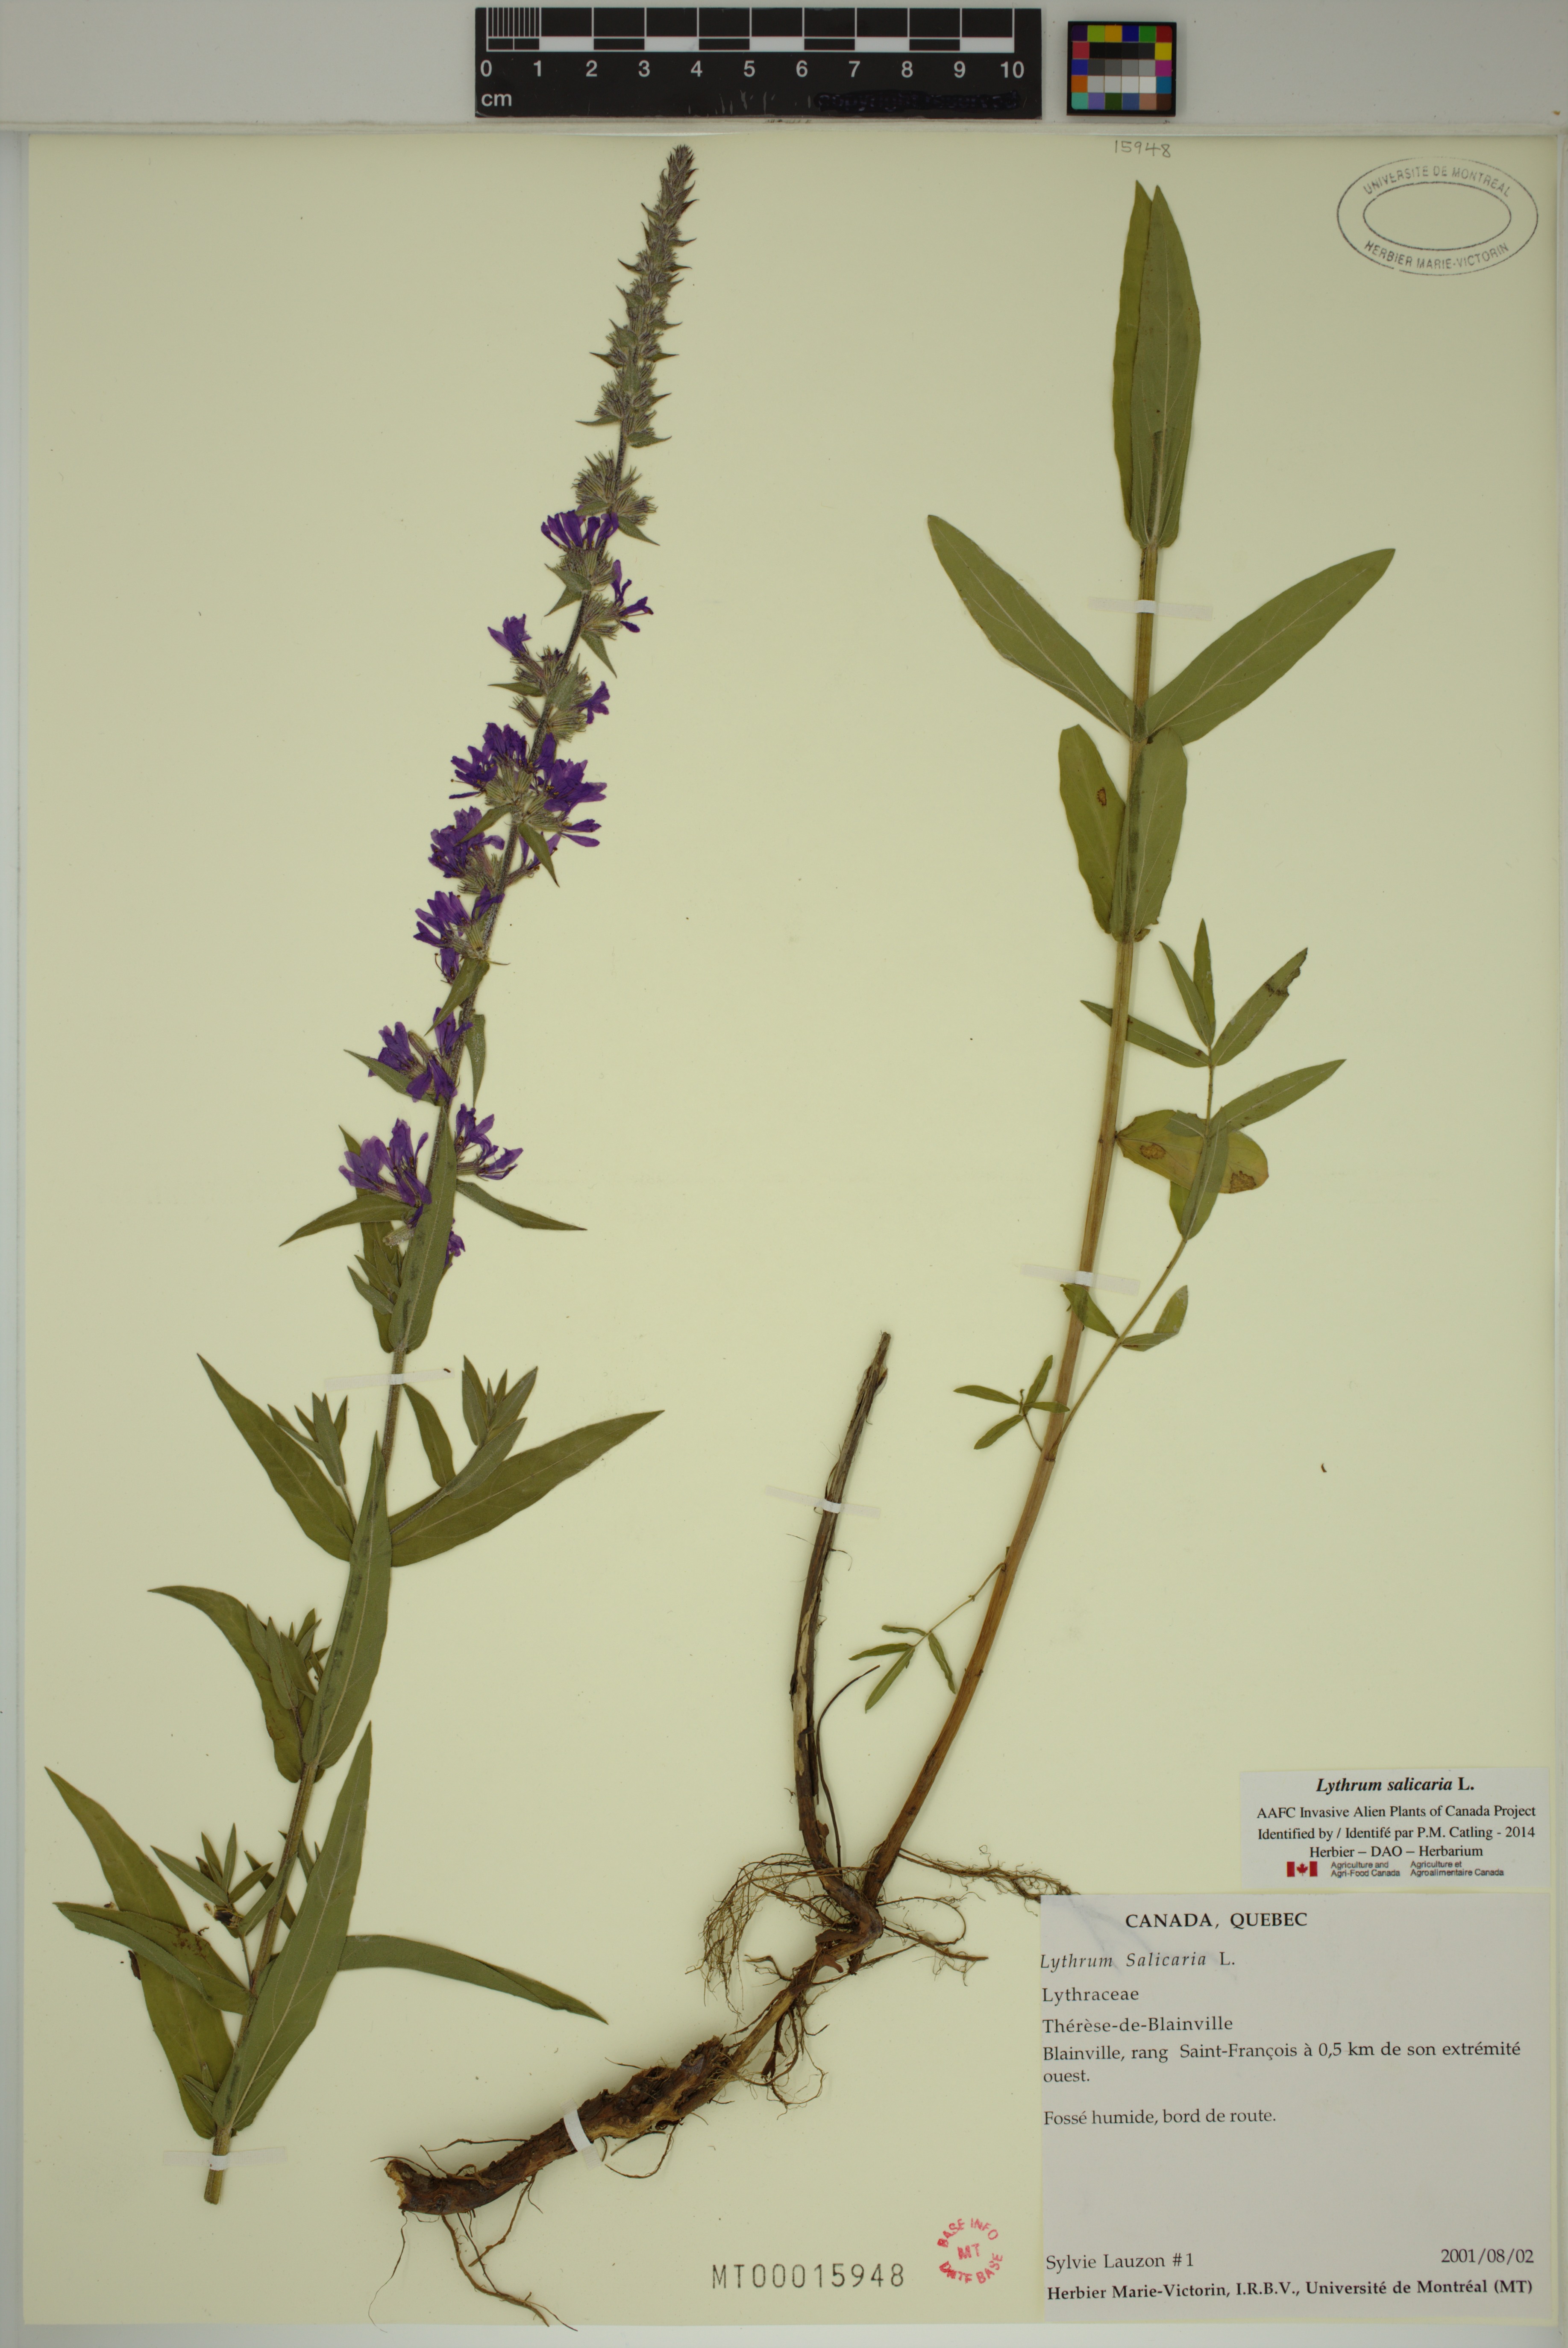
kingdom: Plantae
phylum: Tracheophyta
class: Magnoliopsida
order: Myrtales
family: Lythraceae
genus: Lythrum
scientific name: Lythrum salicaria
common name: Purple loosestrife
